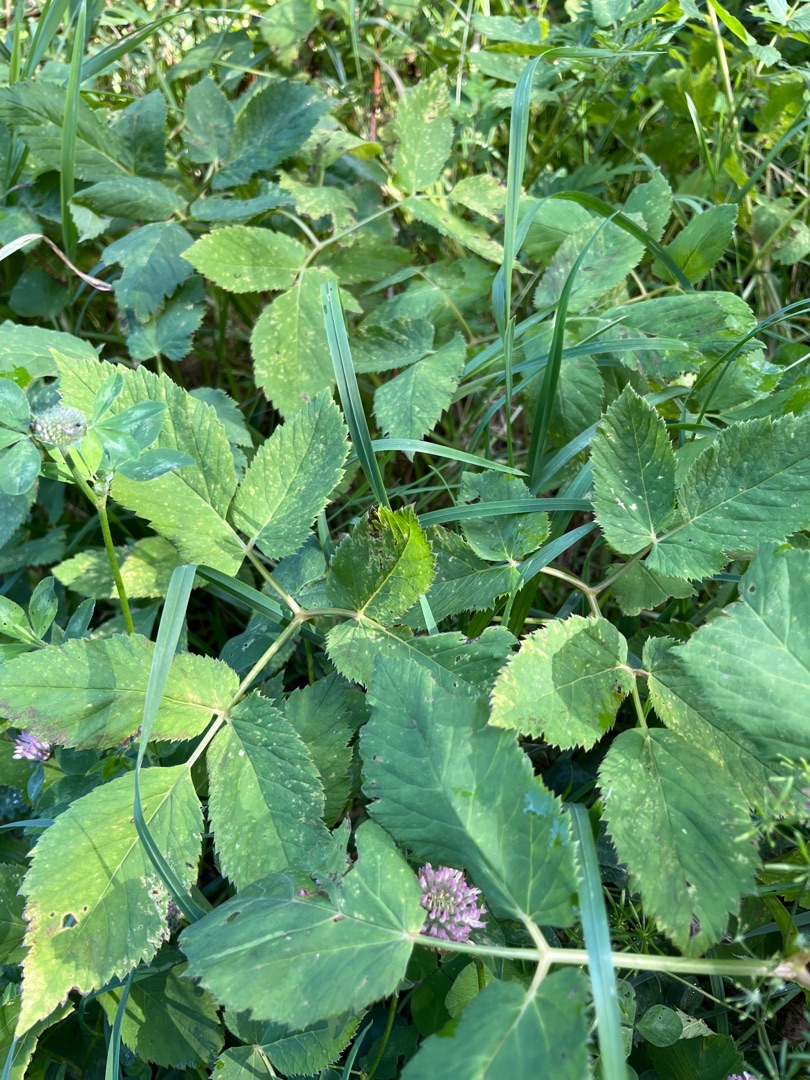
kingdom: Plantae
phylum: Tracheophyta
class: Magnoliopsida
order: Apiales
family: Apiaceae
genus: Aegopodium
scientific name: Aegopodium podagraria
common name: Skvalderkål
